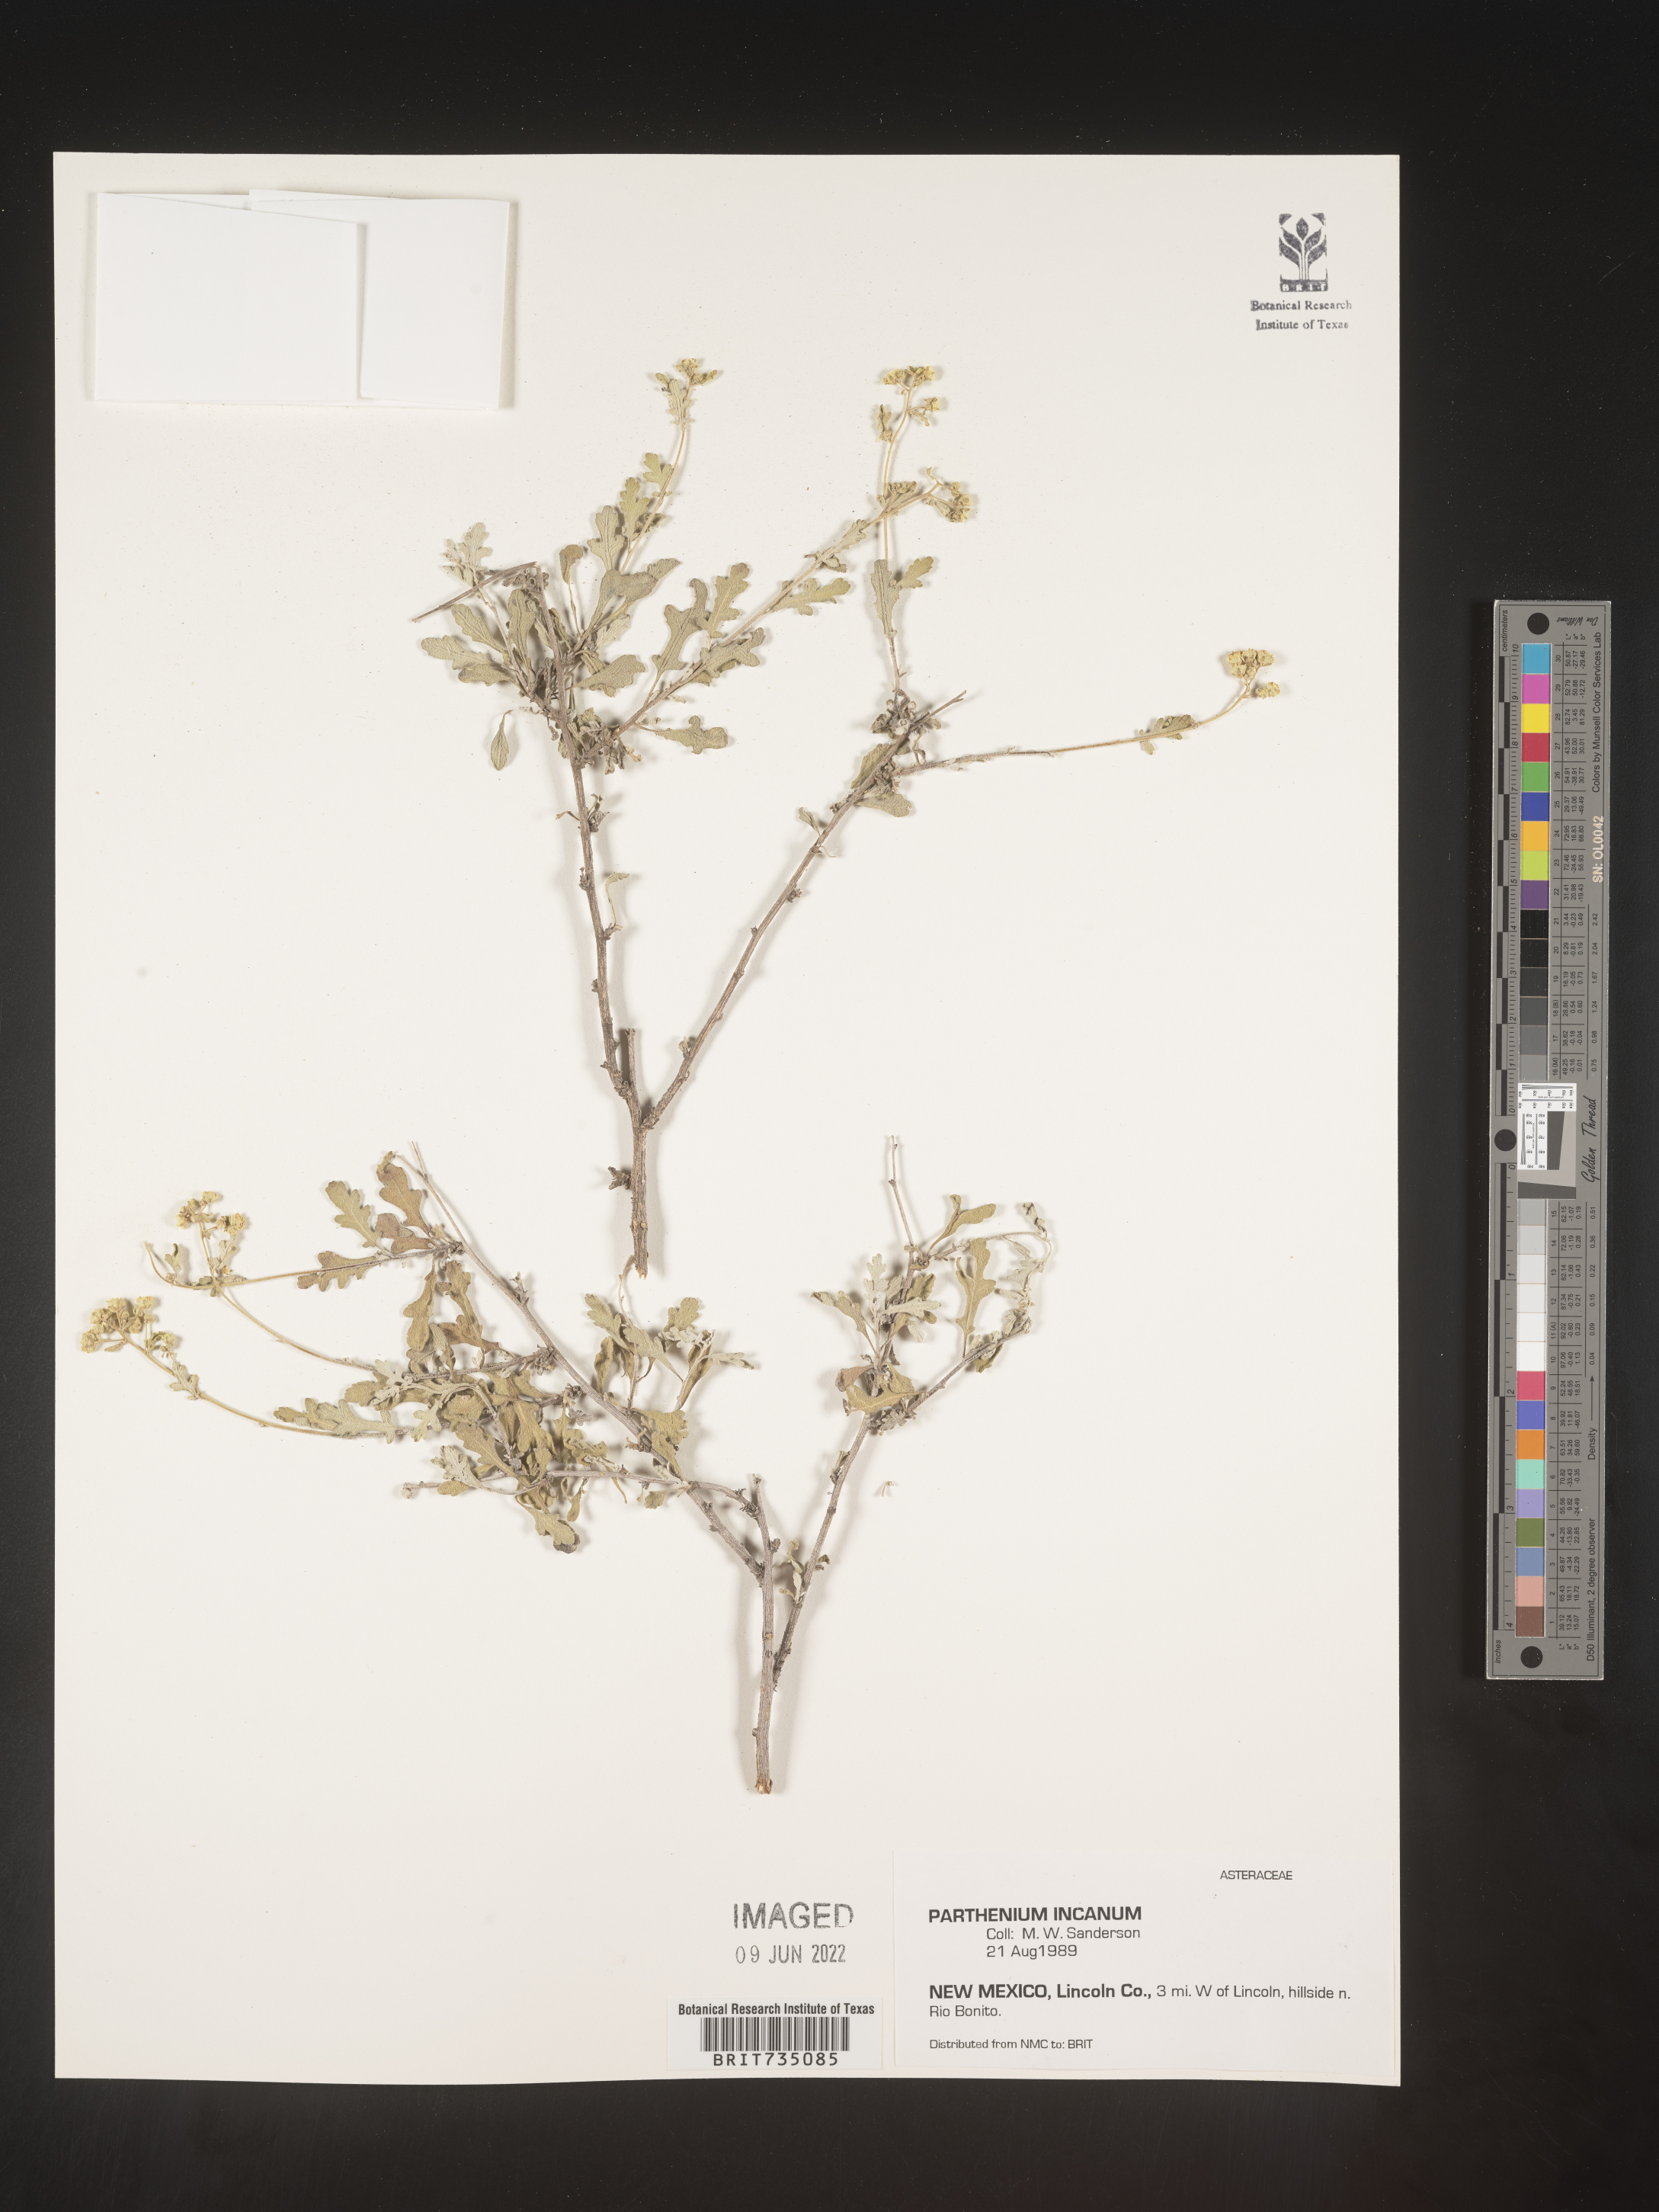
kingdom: Plantae
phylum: Tracheophyta
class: Magnoliopsida
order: Asterales
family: Asteraceae
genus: Parthenium
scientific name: Parthenium incanum
